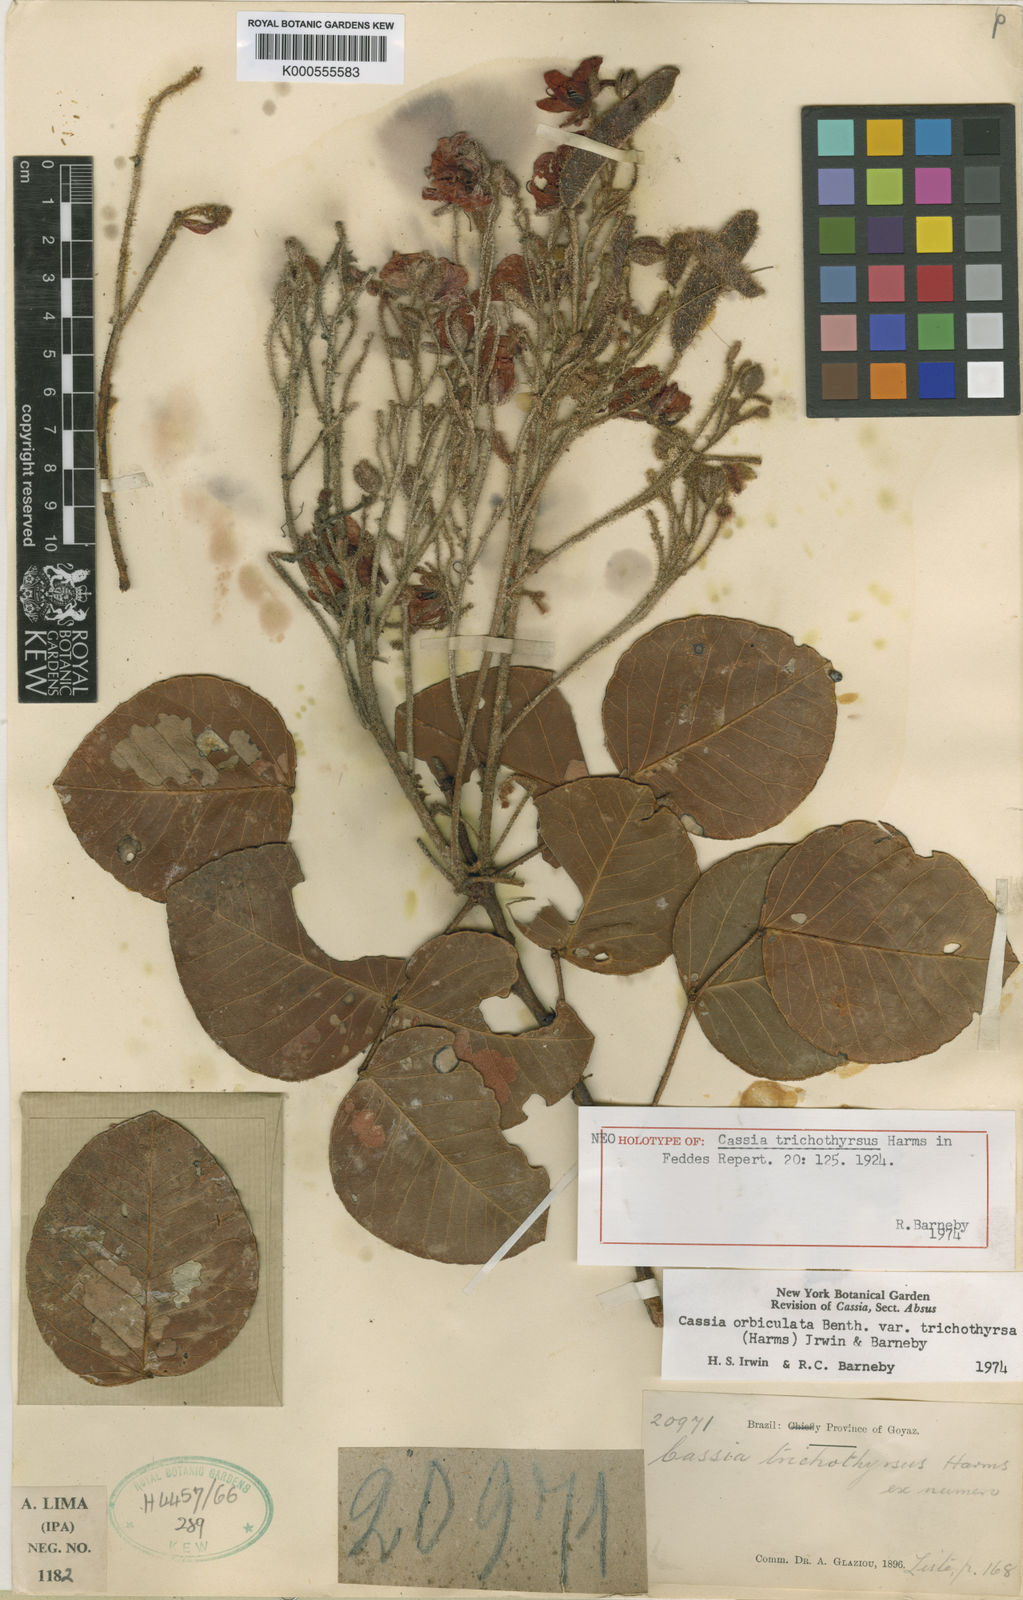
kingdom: Plantae
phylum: Tracheophyta
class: Magnoliopsida
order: Fabales
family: Fabaceae
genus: Chamaecrista
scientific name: Chamaecrista trichothyrsus
